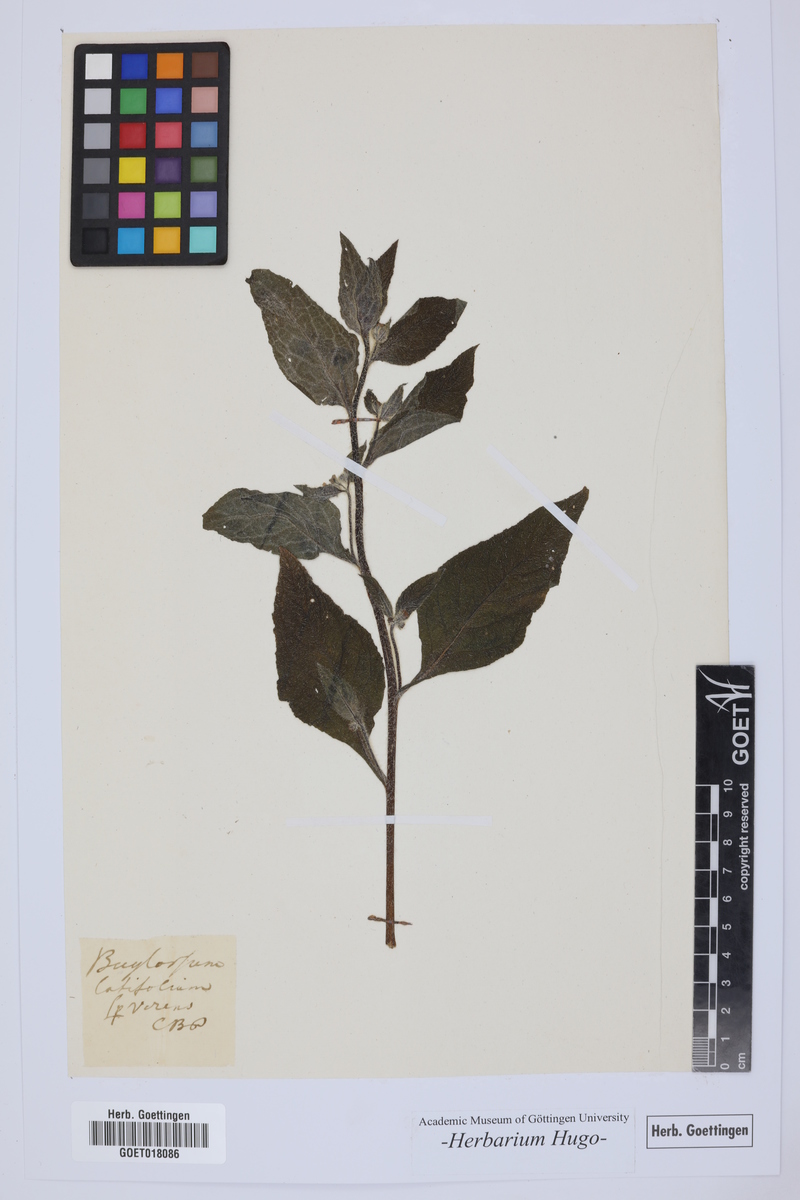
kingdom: Plantae
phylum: Tracheophyta
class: Magnoliopsida
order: Boraginales
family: Boraginaceae
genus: Pentaglottis
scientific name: Pentaglottis sempervirens
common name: Green alkanet
